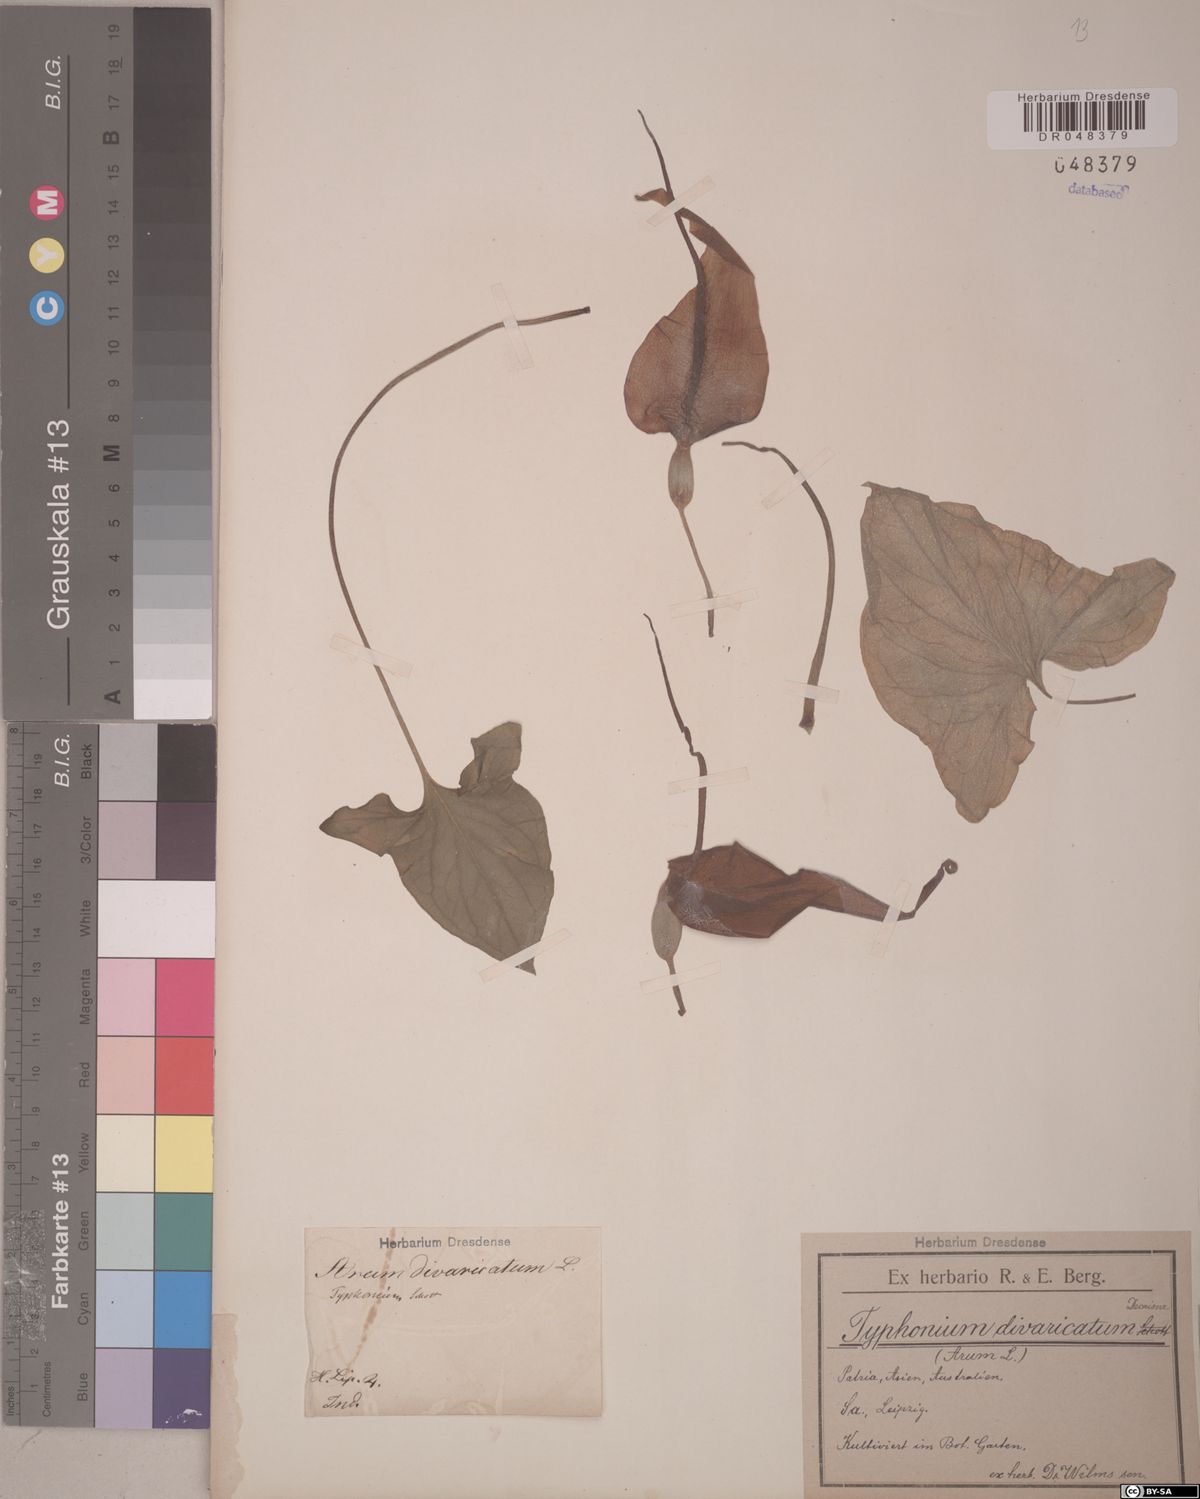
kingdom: Plantae
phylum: Tracheophyta
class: Liliopsida
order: Alismatales
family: Araceae
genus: Typhonium
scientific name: Typhonium roxburghii
